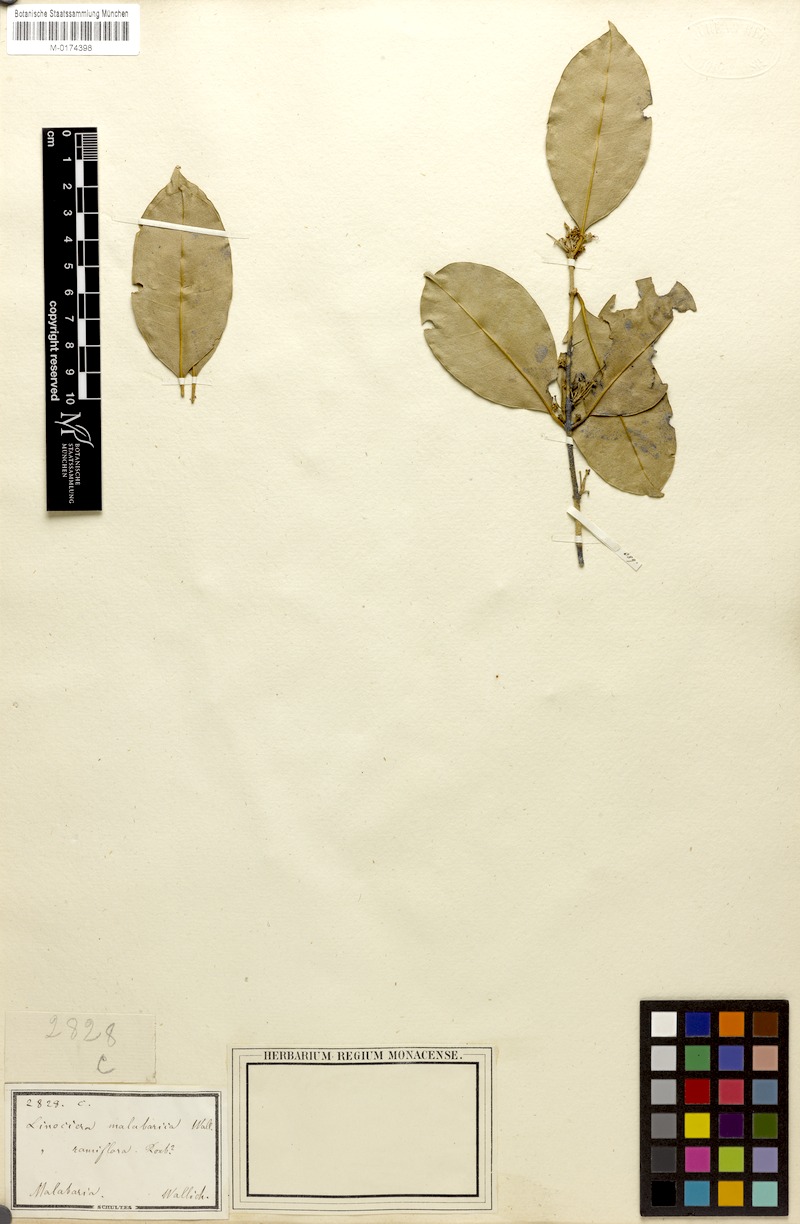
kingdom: Plantae
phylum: Tracheophyta
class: Magnoliopsida
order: Lamiales
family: Oleaceae
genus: Chionanthus
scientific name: Chionanthus mala-elengi
